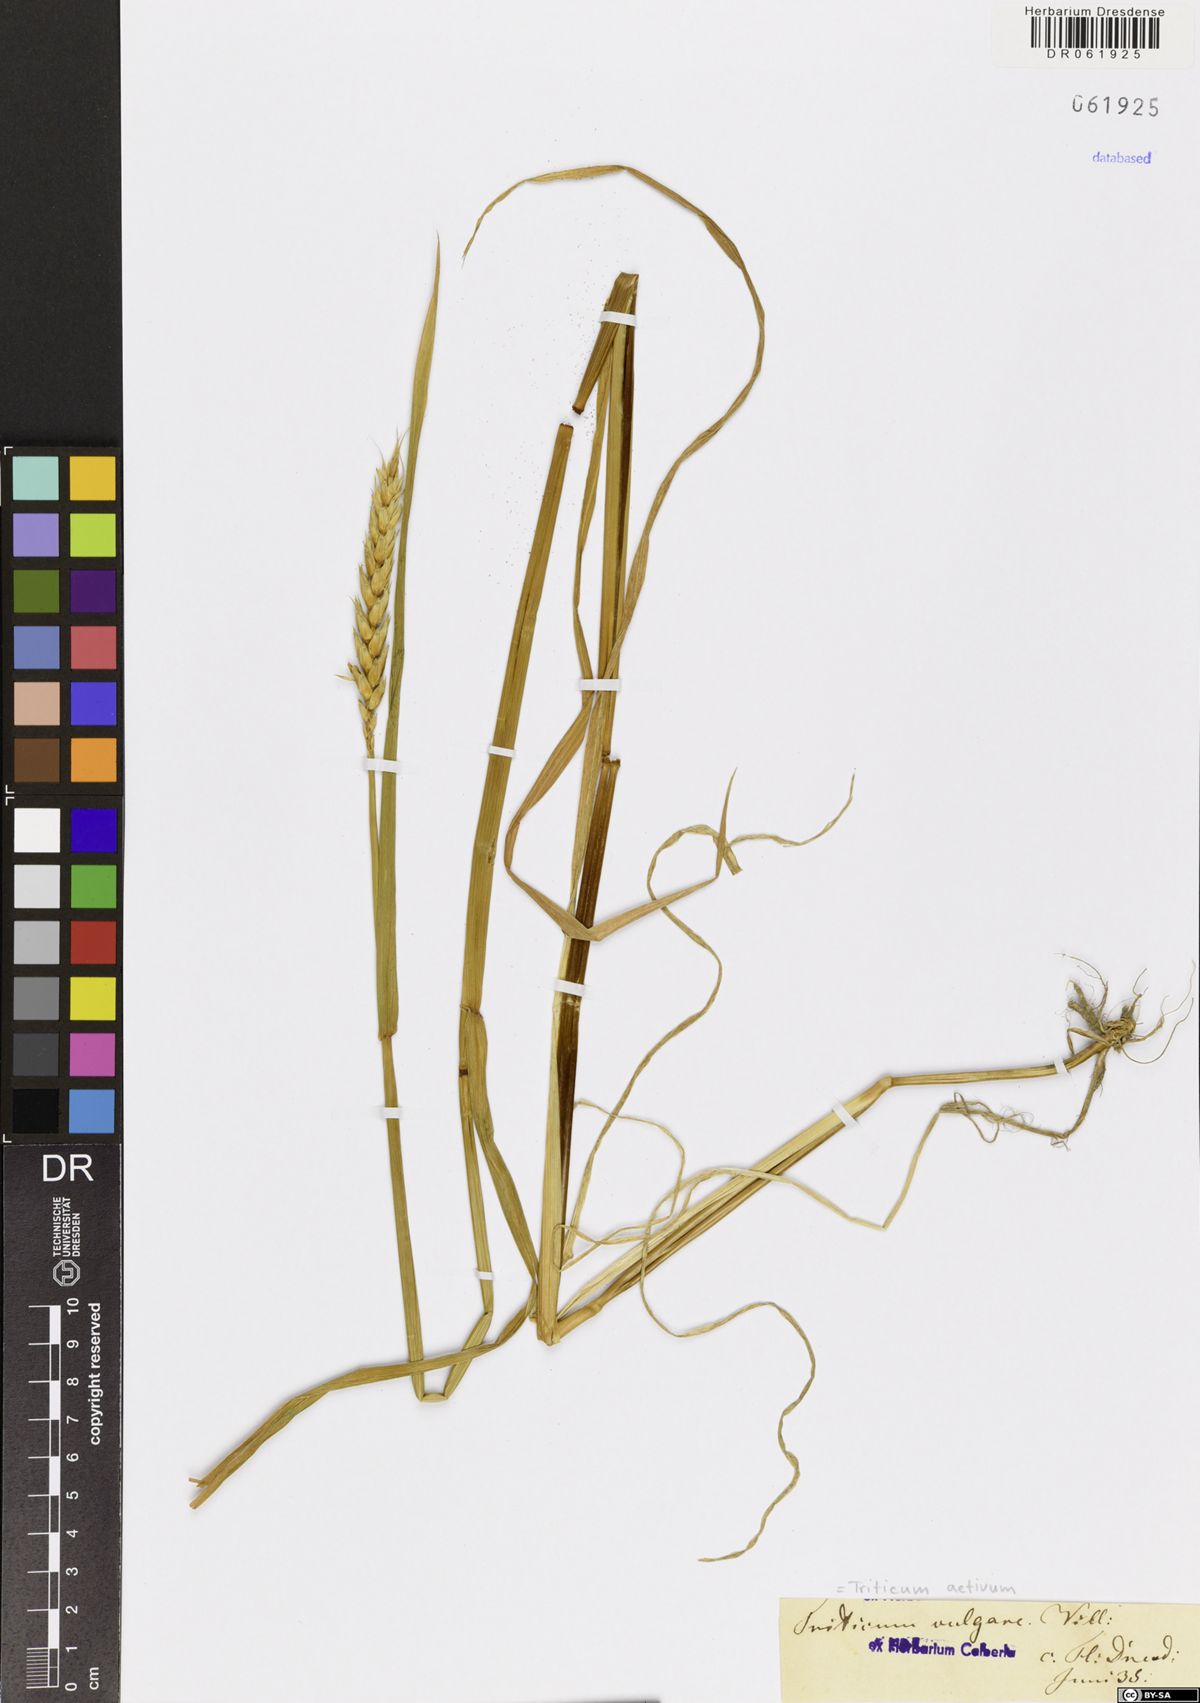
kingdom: Plantae
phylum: Tracheophyta
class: Liliopsida
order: Poales
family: Poaceae
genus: Triticum
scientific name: Triticum aestivum
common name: Common wheat
